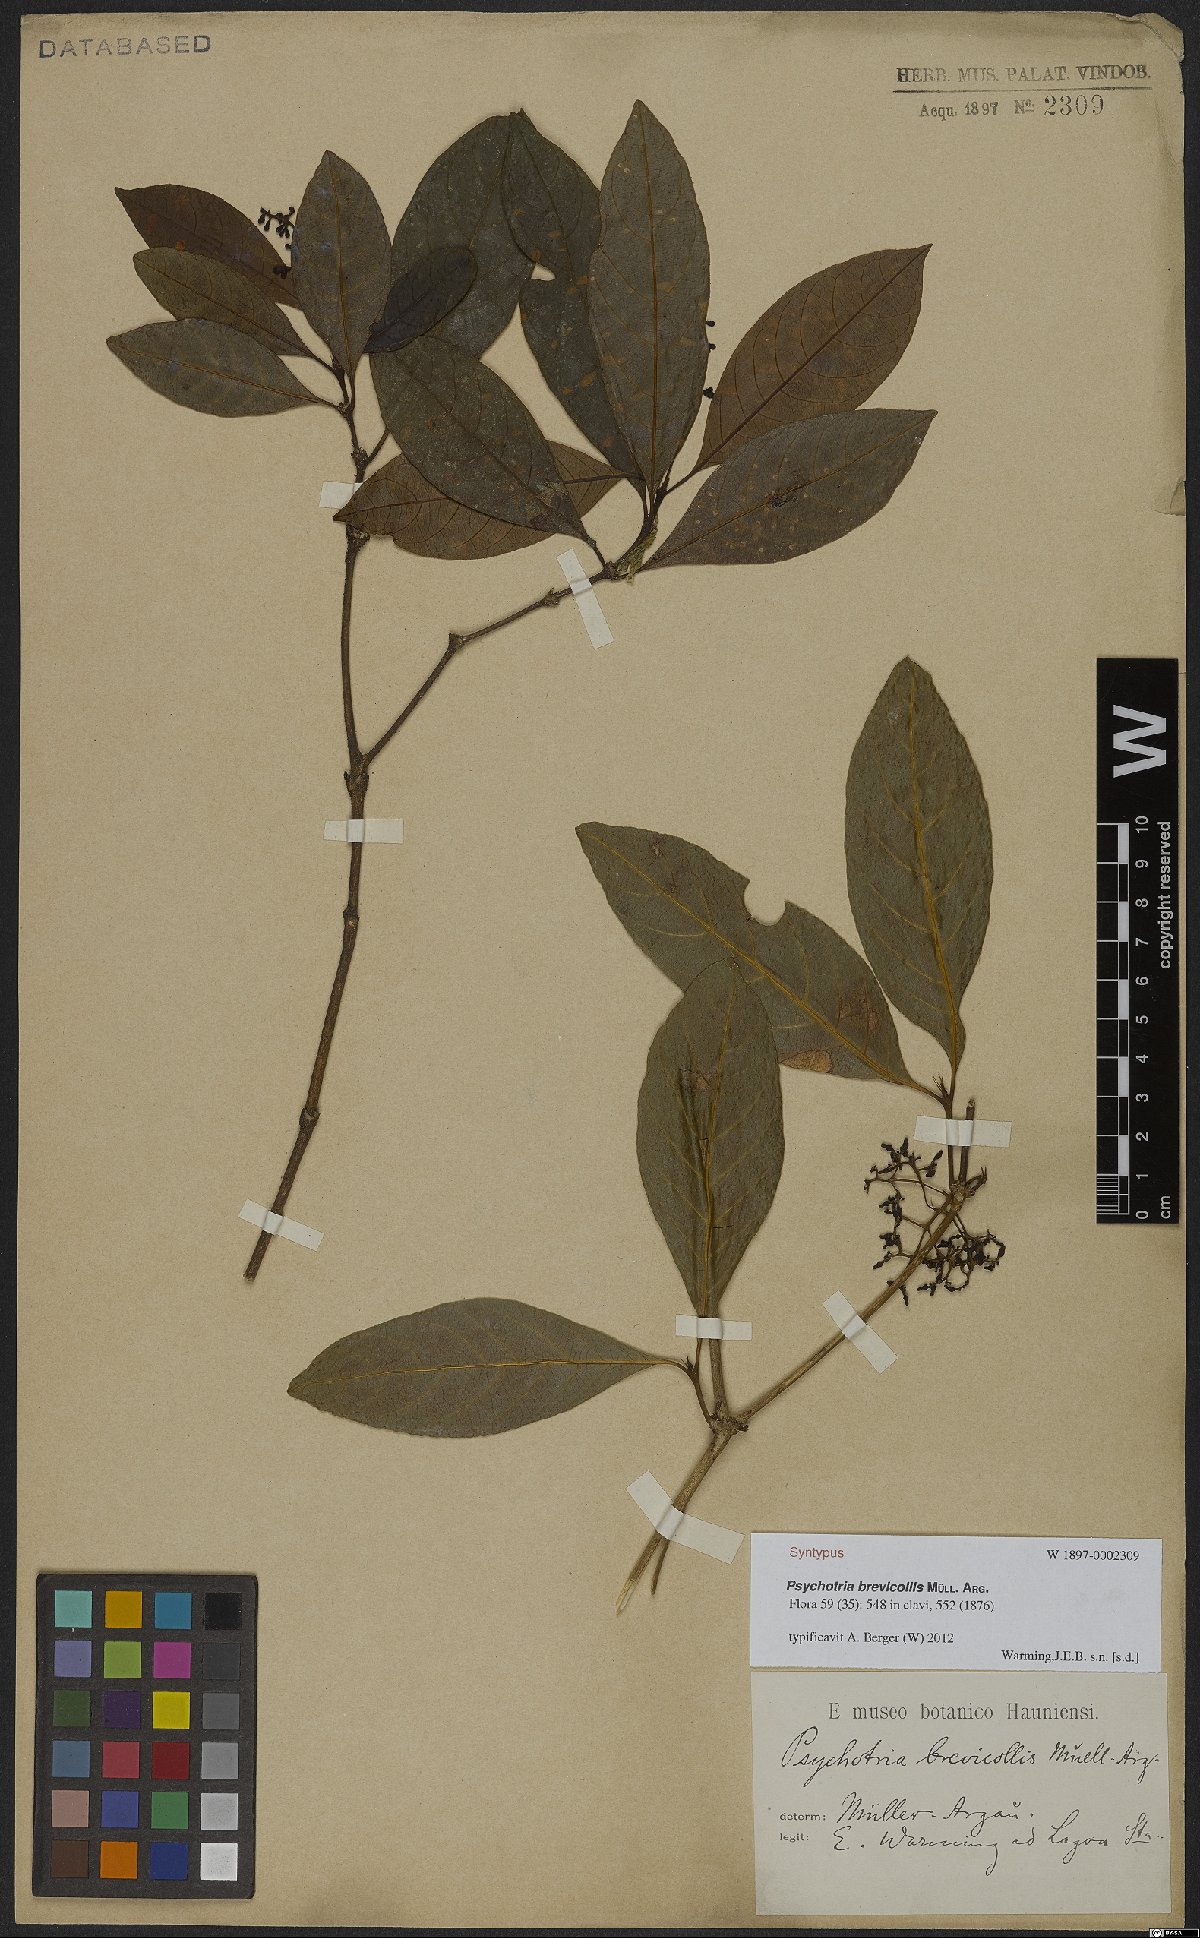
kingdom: Plantae
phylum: Tracheophyta
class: Magnoliopsida
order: Gentianales
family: Rubiaceae
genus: Palicourea
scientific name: Palicourea brevicollis
